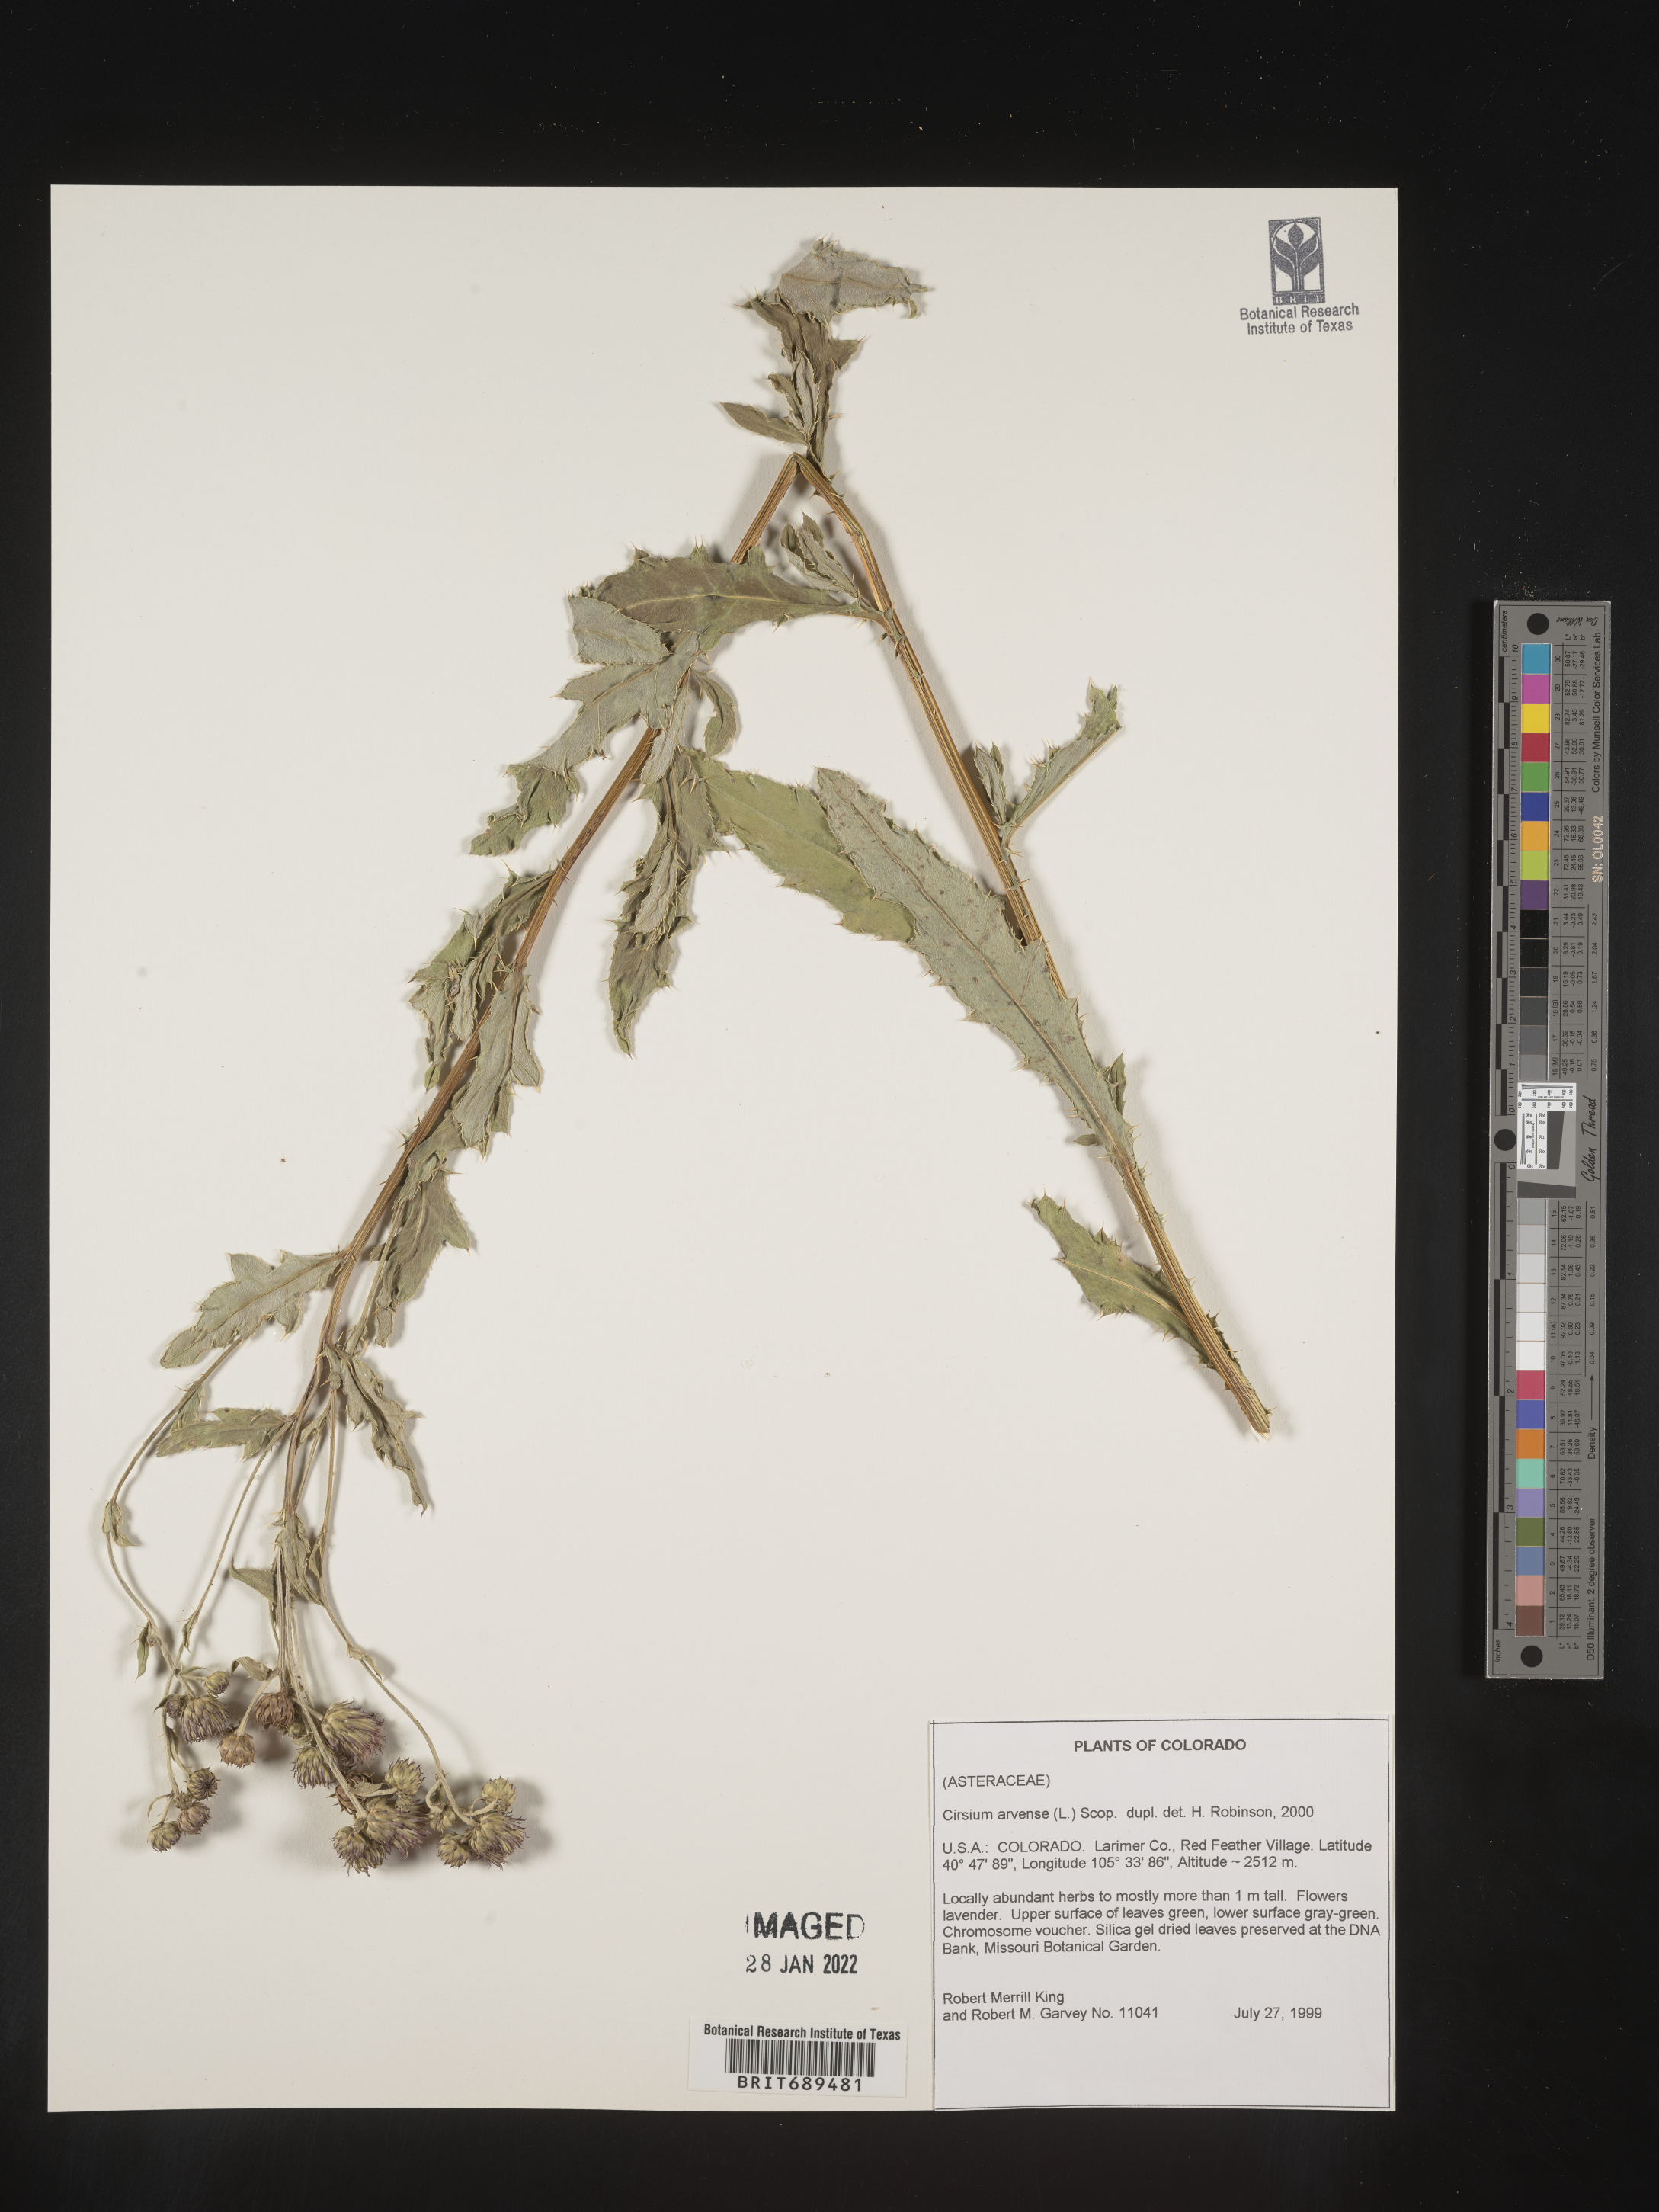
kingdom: Plantae
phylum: Tracheophyta
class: Magnoliopsida
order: Asterales
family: Asteraceae
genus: Cirsium
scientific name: Cirsium arvense
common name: Creeping thistle
